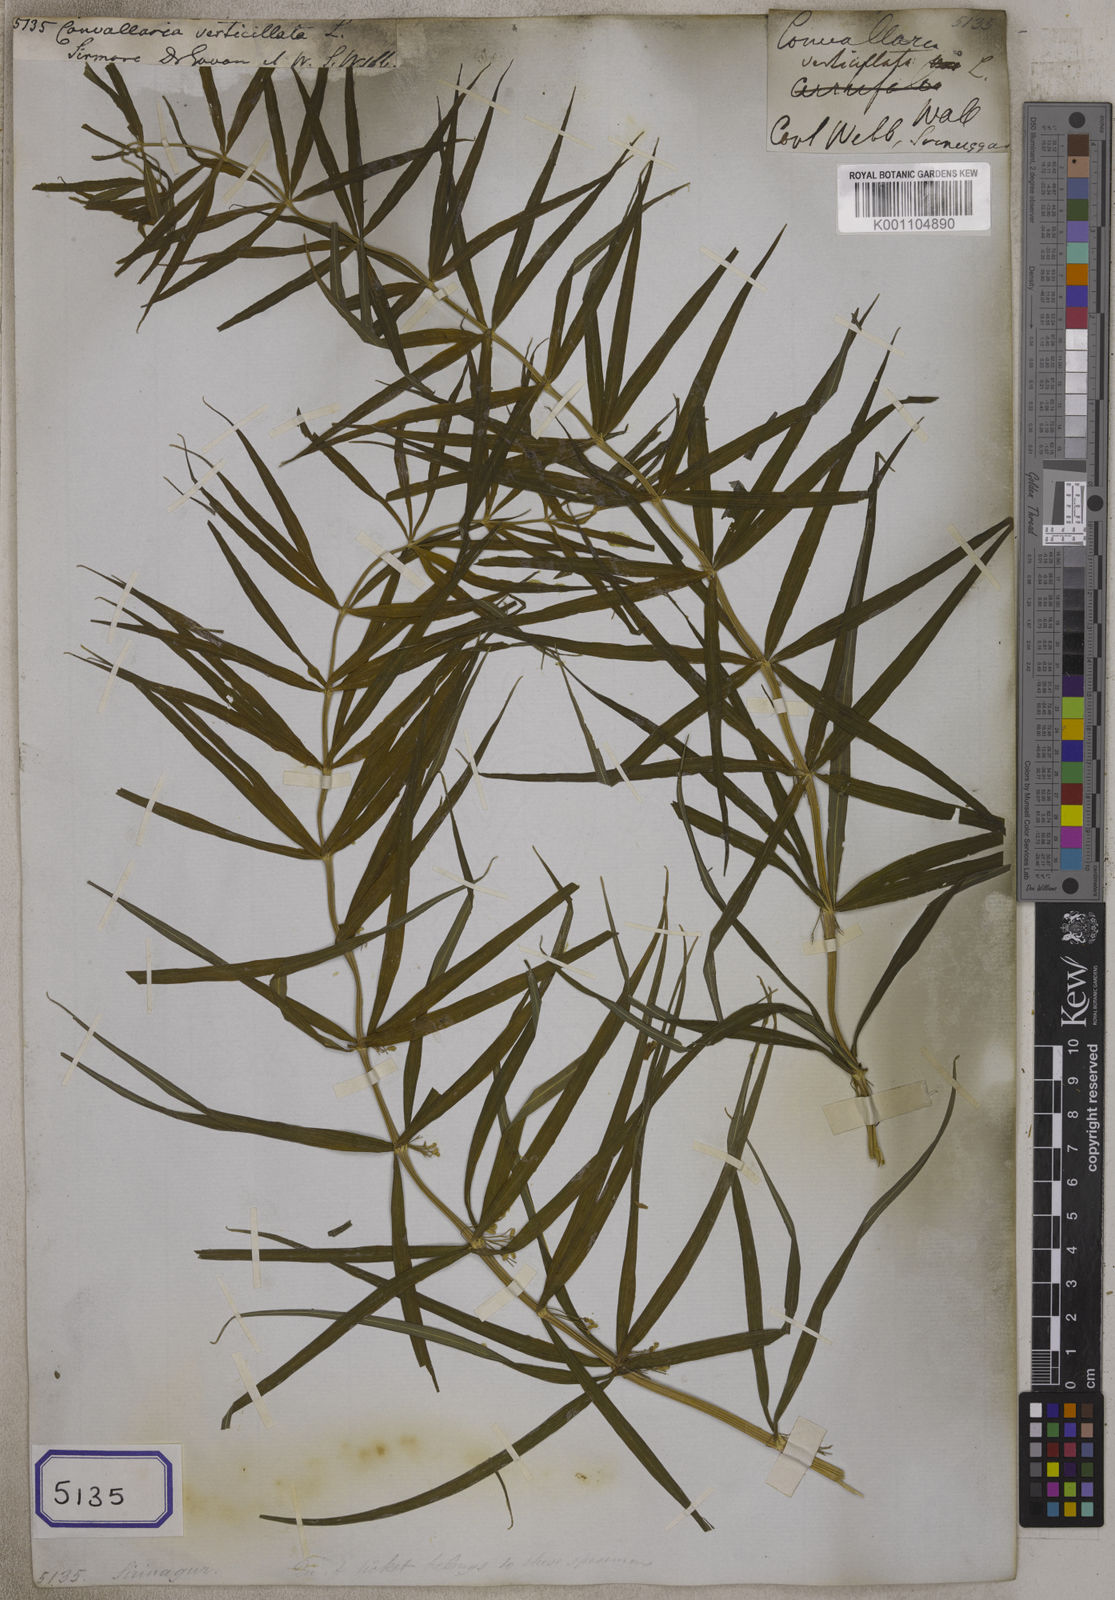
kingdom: Plantae
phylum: Tracheophyta
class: Liliopsida
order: Asparagales
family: Asparagaceae
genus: Polygonatum
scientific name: Polygonatum verticillatum
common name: Whorled solomon's-seal
